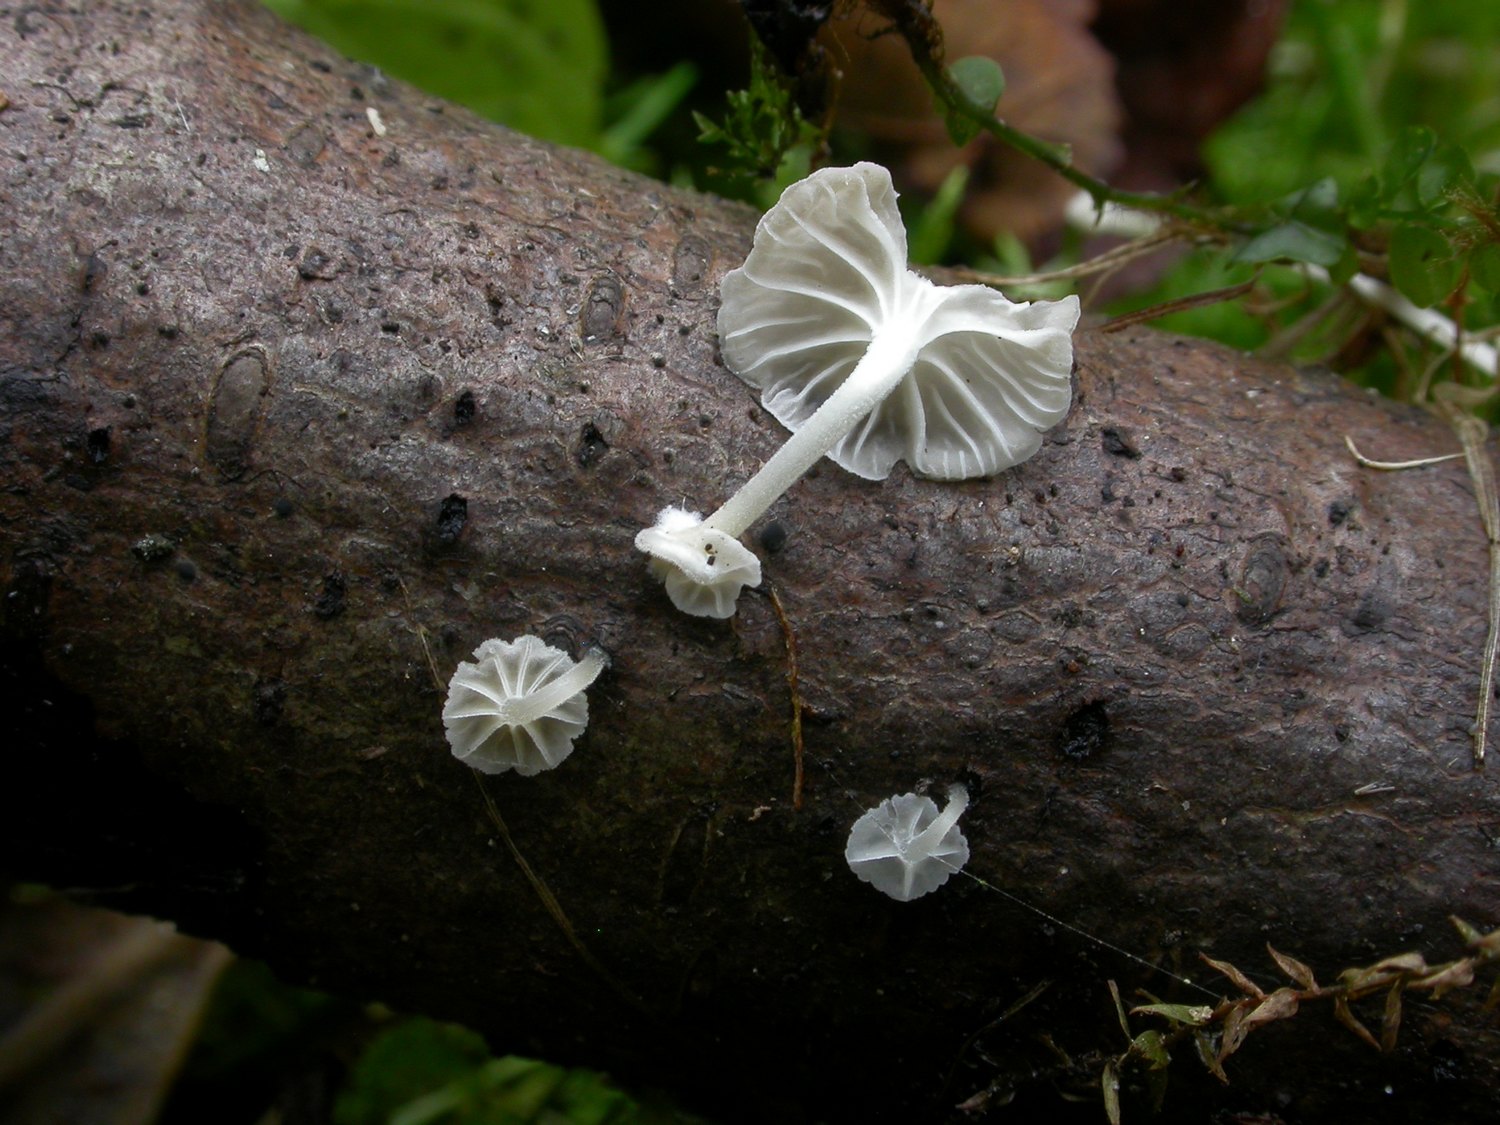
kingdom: Fungi
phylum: Basidiomycota
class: Agaricomycetes
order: Agaricales
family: Porotheleaceae
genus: Phloeomana
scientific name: Phloeomana speirea
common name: kvist-huesvamp
